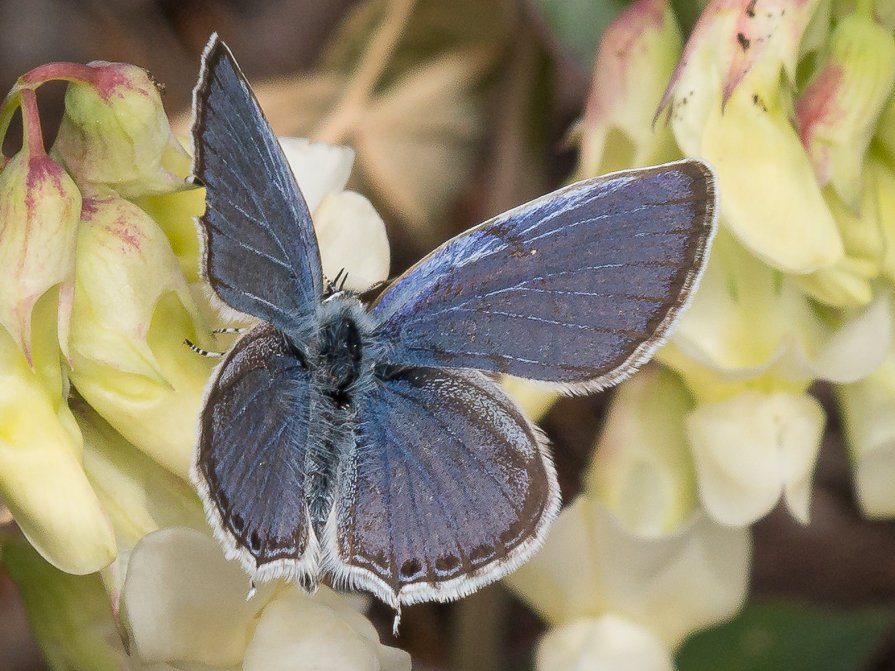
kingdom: Animalia
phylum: Arthropoda
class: Insecta
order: Lepidoptera
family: Lycaenidae
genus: Elkalyce
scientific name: Elkalyce amyntula
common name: Western Tailed-Blue
